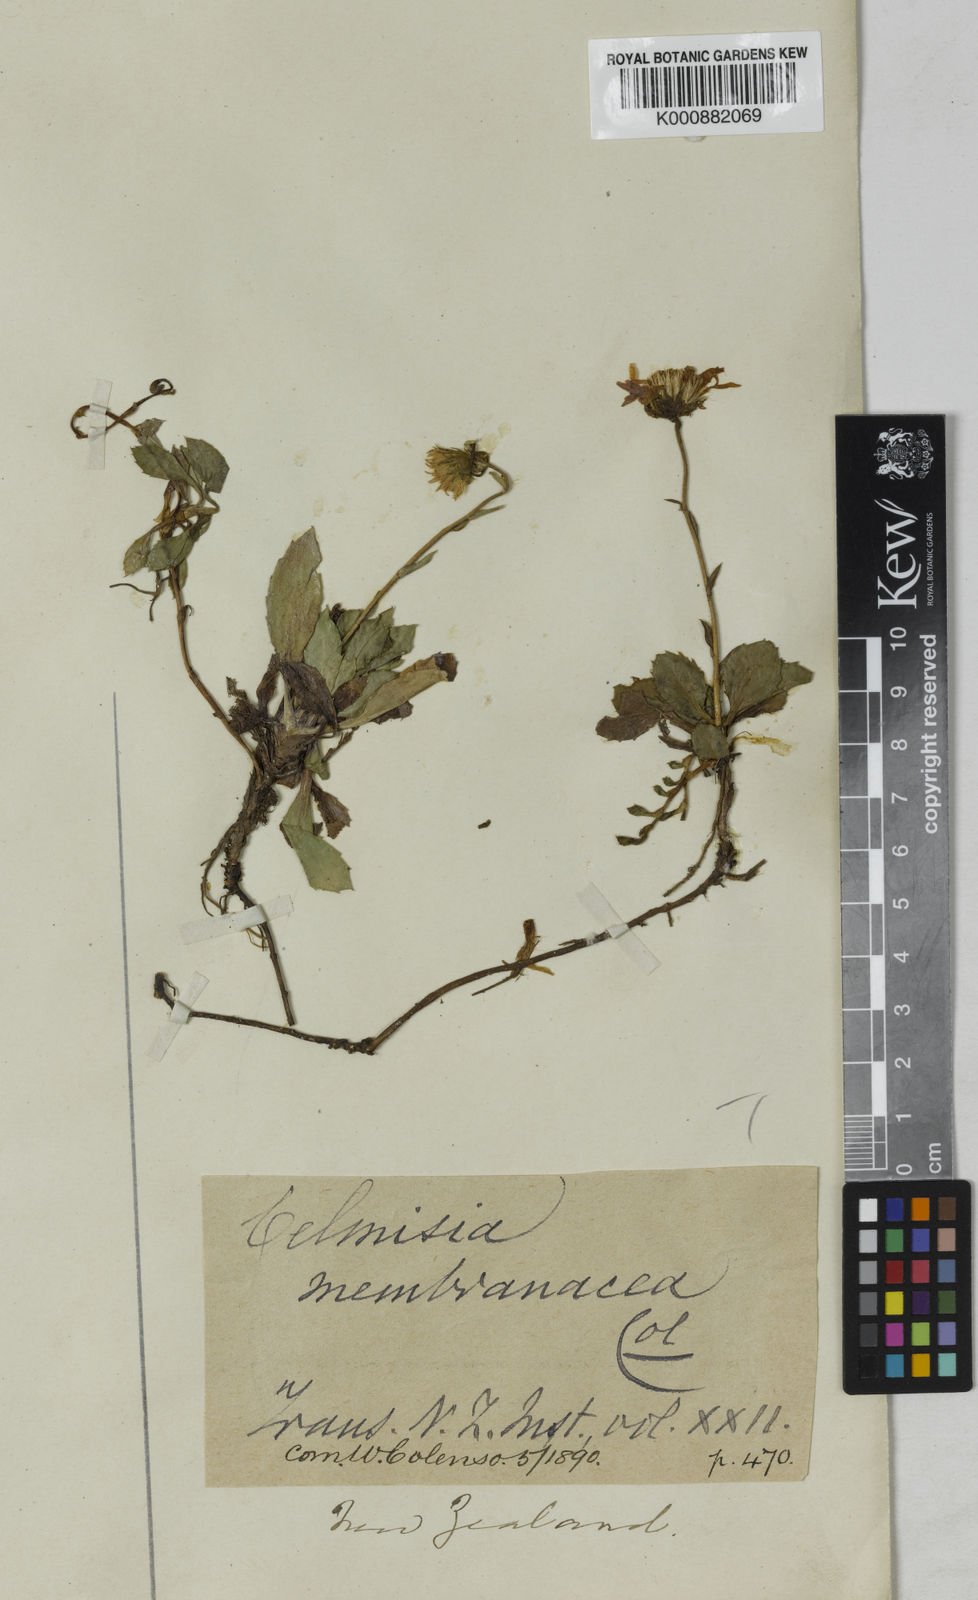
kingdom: Plantae
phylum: Tracheophyta
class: Magnoliopsida
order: Asterales
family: Asteraceae
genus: Celmisia
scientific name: Celmisia glandulosa
